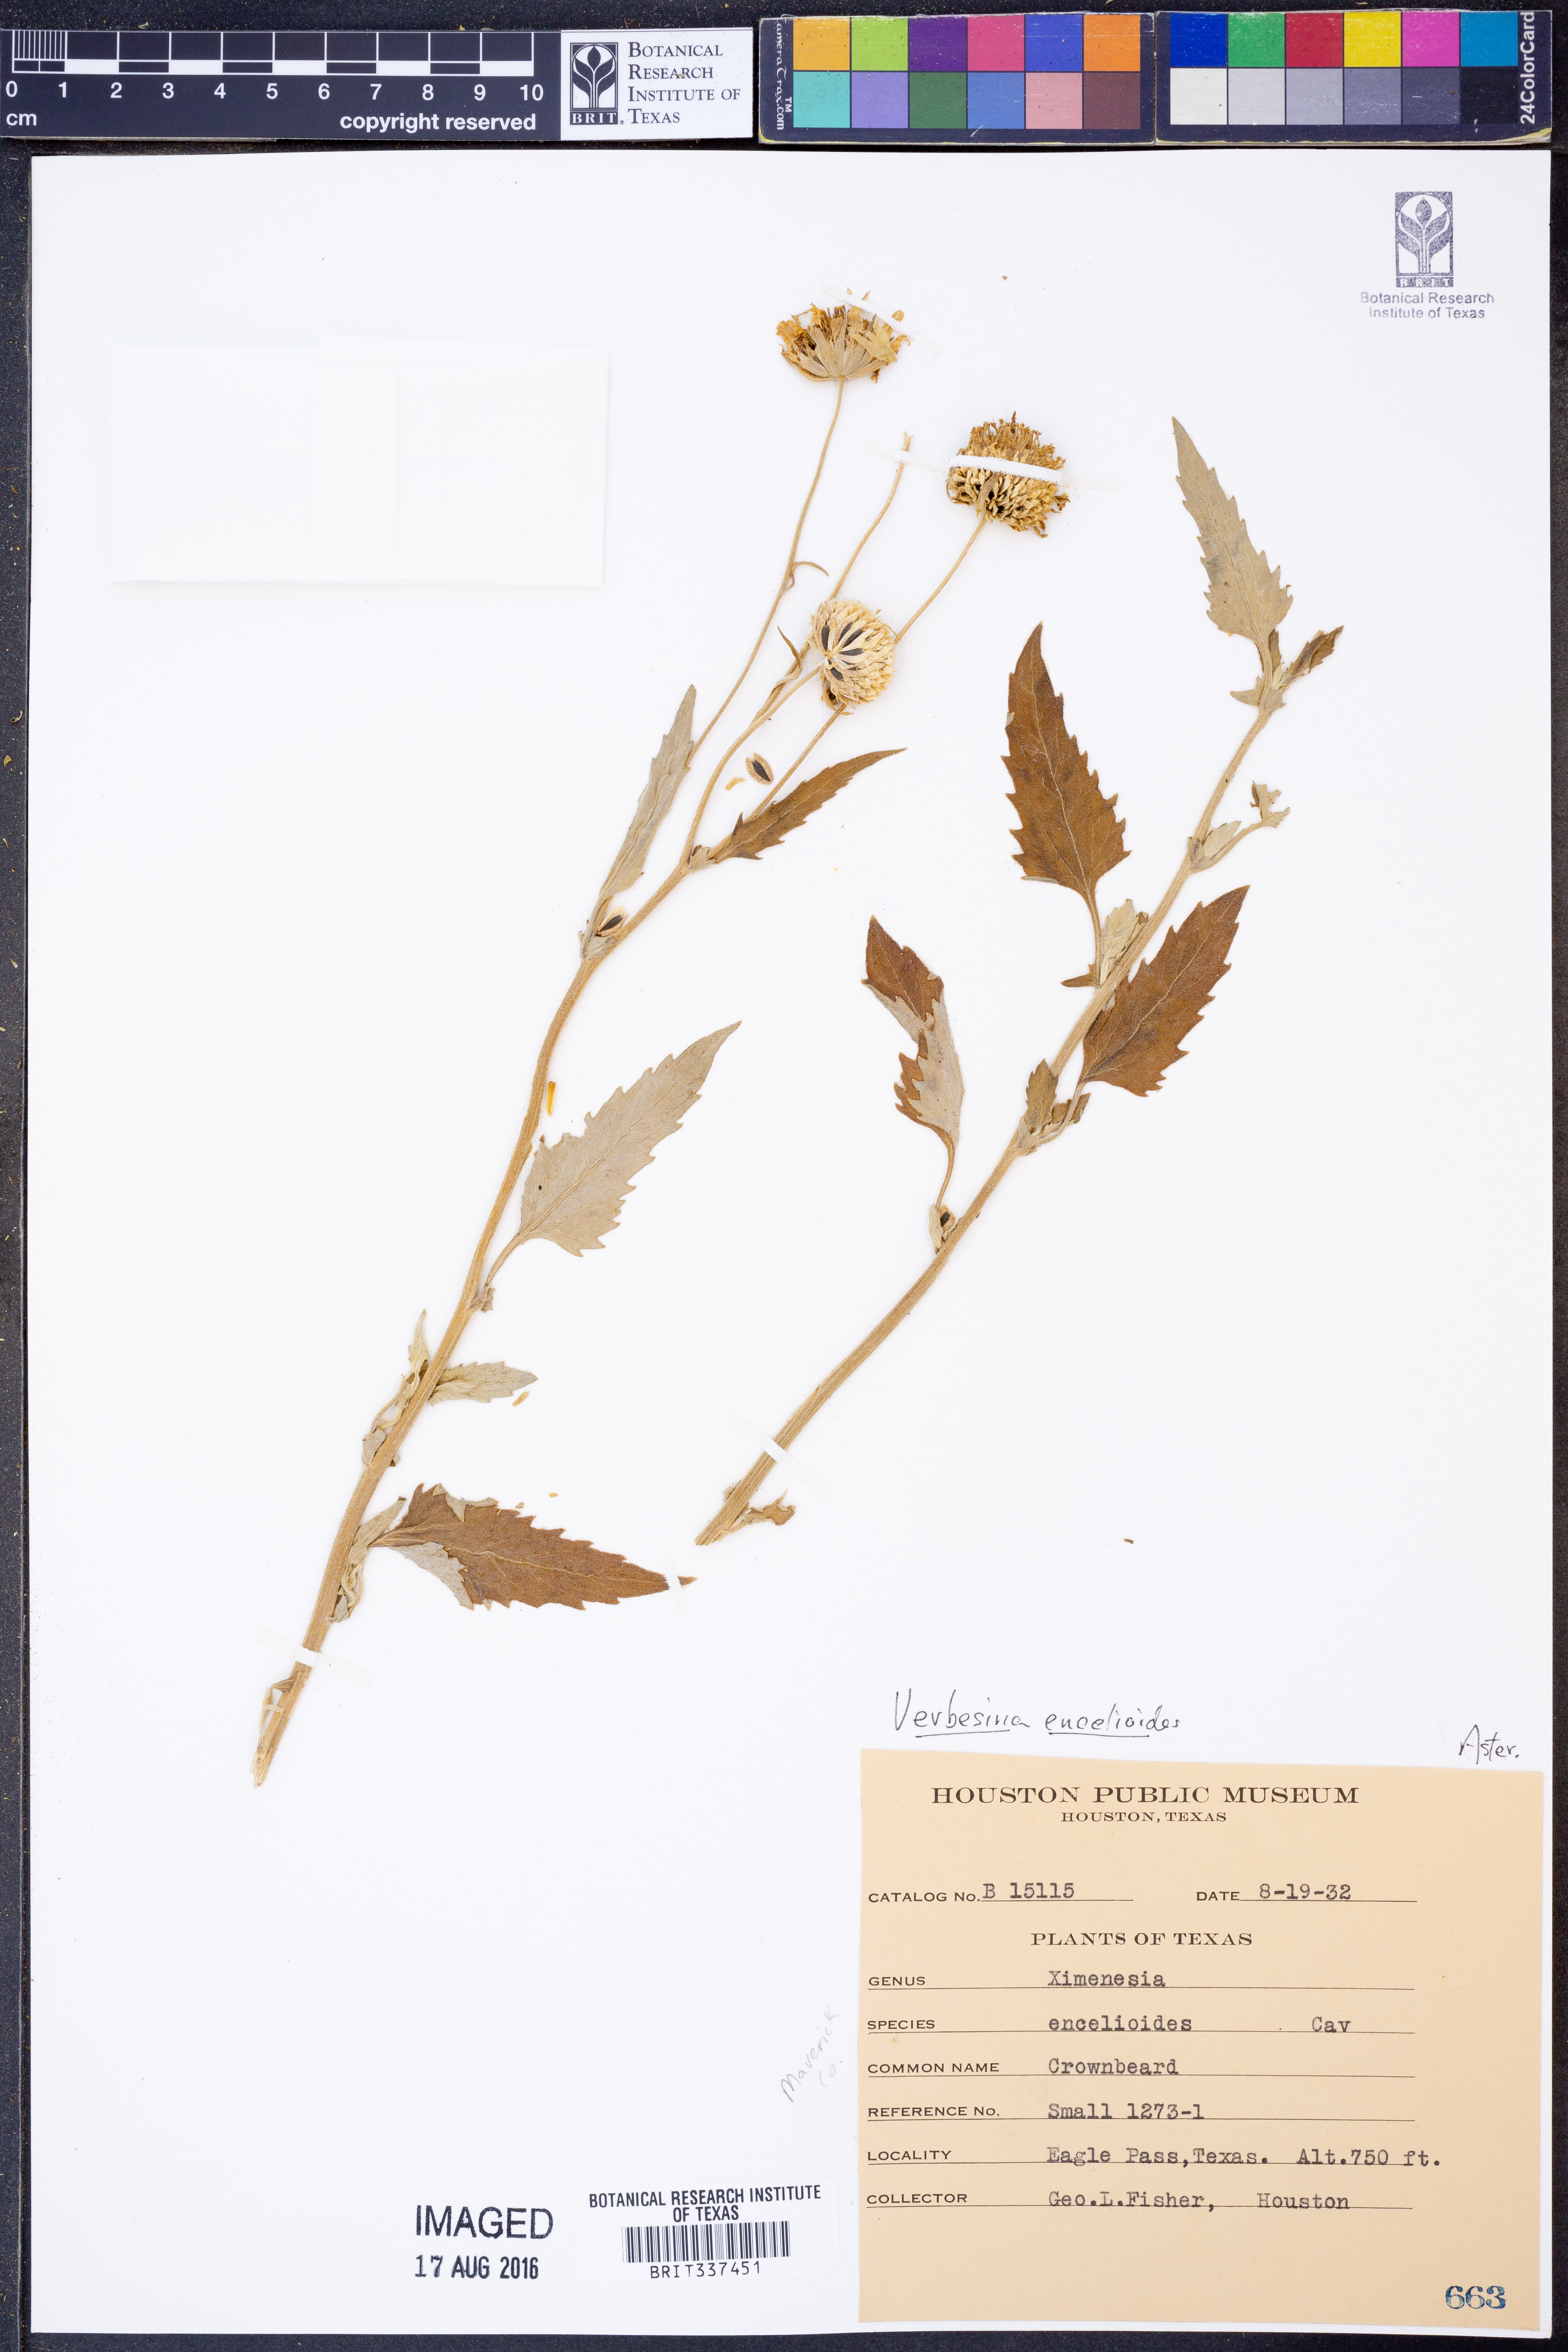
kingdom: Plantae
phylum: Tracheophyta
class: Magnoliopsida
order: Asterales
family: Asteraceae
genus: Verbesina
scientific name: Verbesina encelioides
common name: Golden crownbeard
